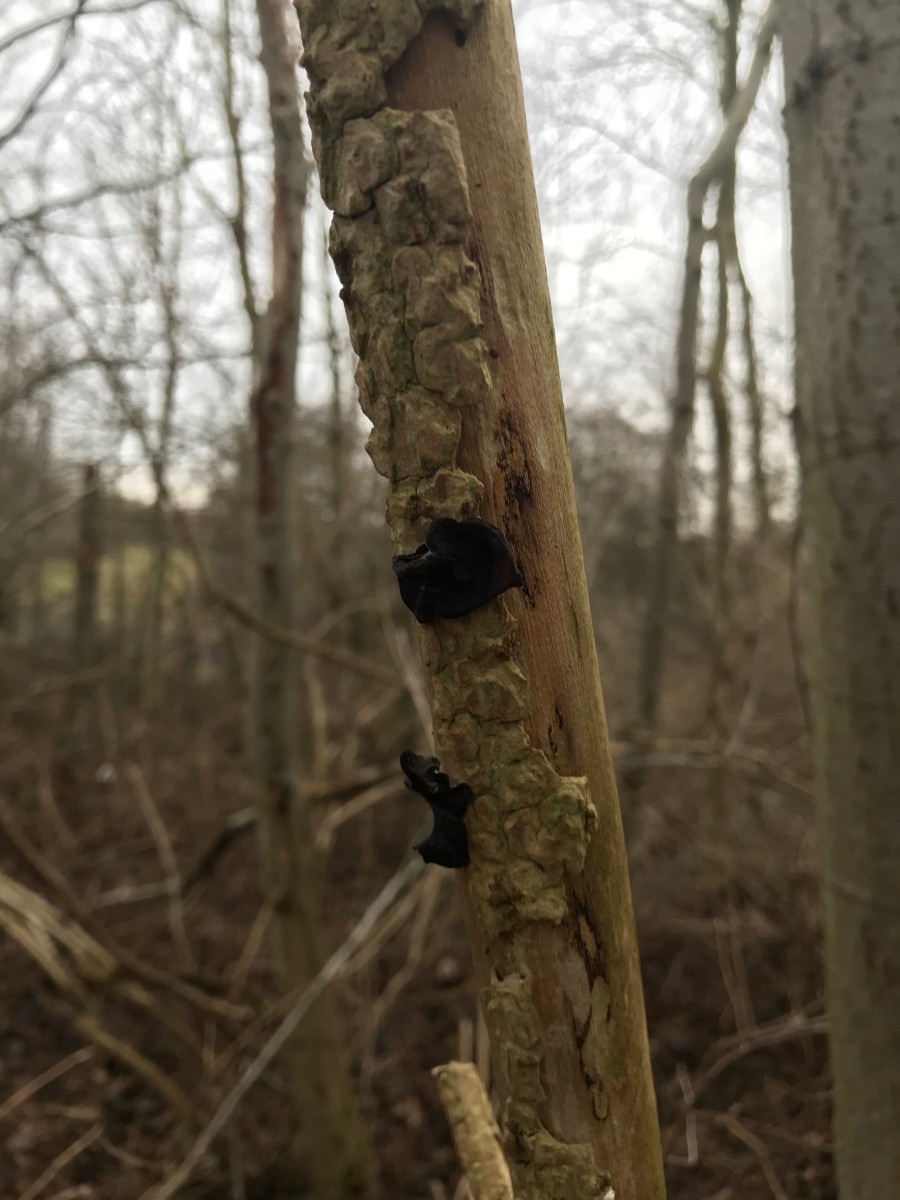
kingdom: Fungi
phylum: Basidiomycota
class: Agaricomycetes
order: Auriculariales
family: Auriculariaceae
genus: Auricularia
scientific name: Auricularia auricula-judae
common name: almindelig judasøre
